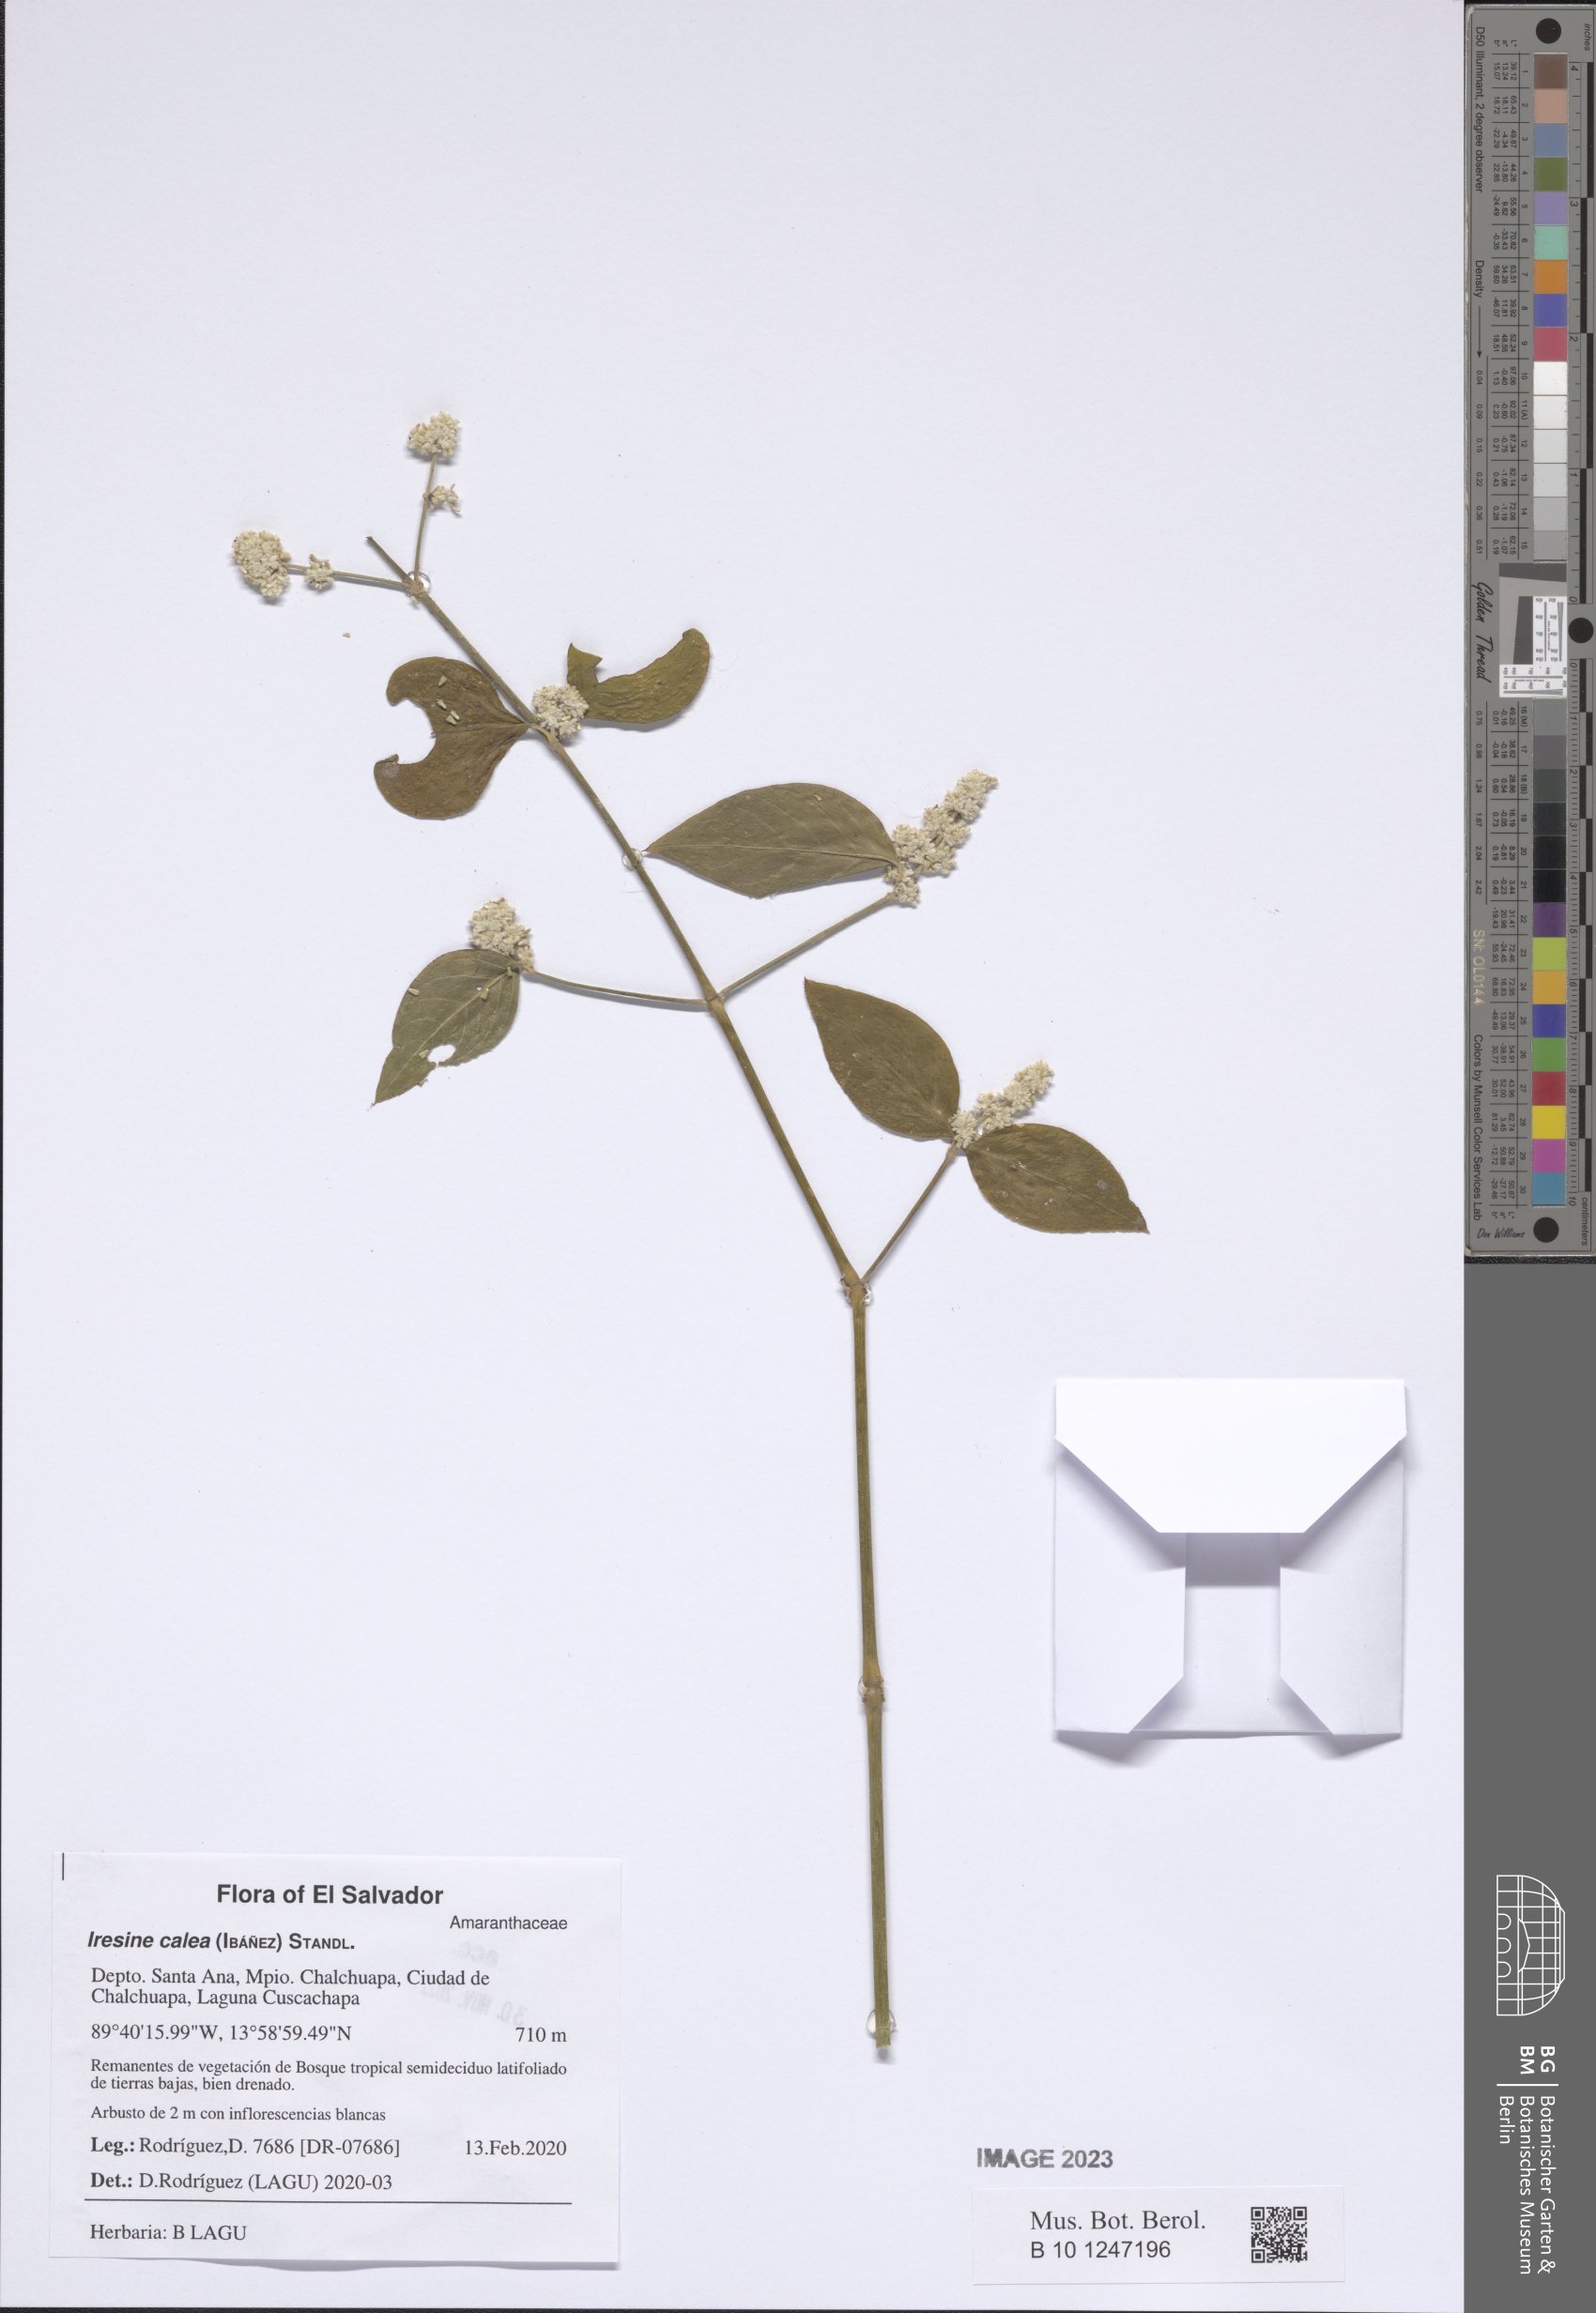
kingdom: Plantae
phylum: Tracheophyta
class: Magnoliopsida
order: Caryophyllales
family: Amaranthaceae
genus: Iresine
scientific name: Iresine latifolia
